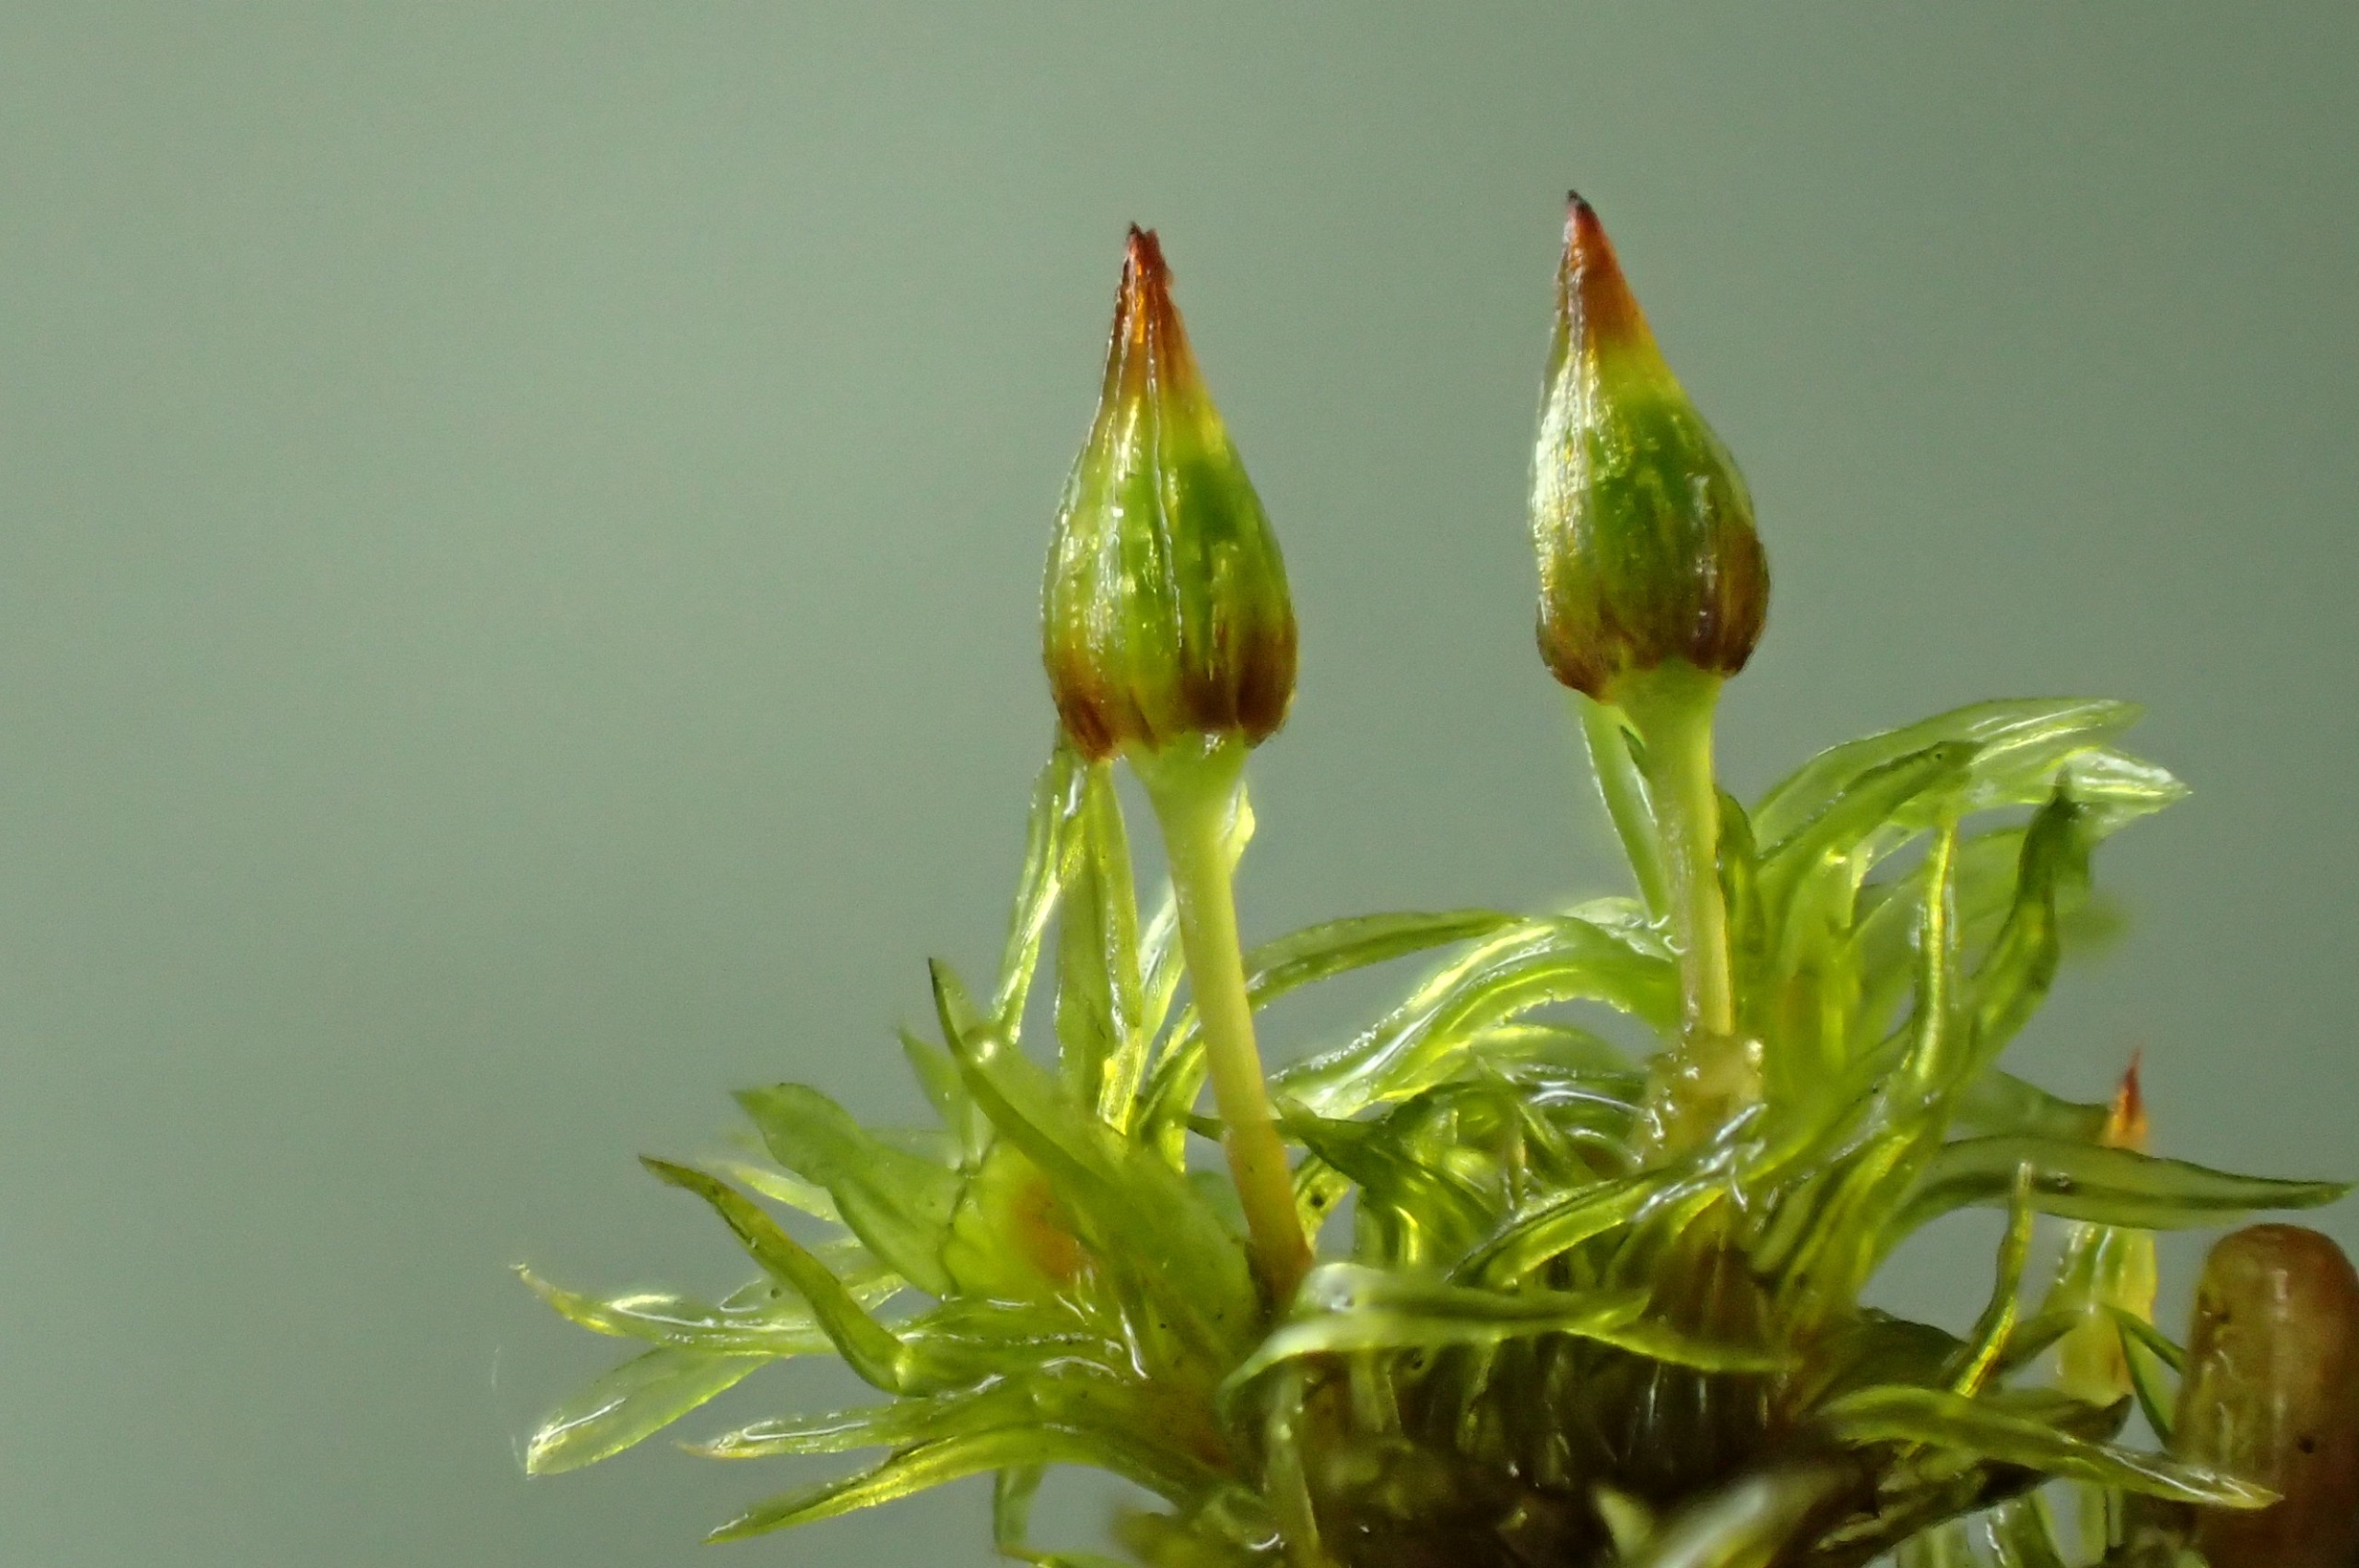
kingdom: Plantae
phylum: Bryophyta
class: Bryopsida
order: Orthotrichales
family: Orthotrichaceae
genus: Orthotrichum
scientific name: Orthotrichum pulchellum
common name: Smuk furehætte
